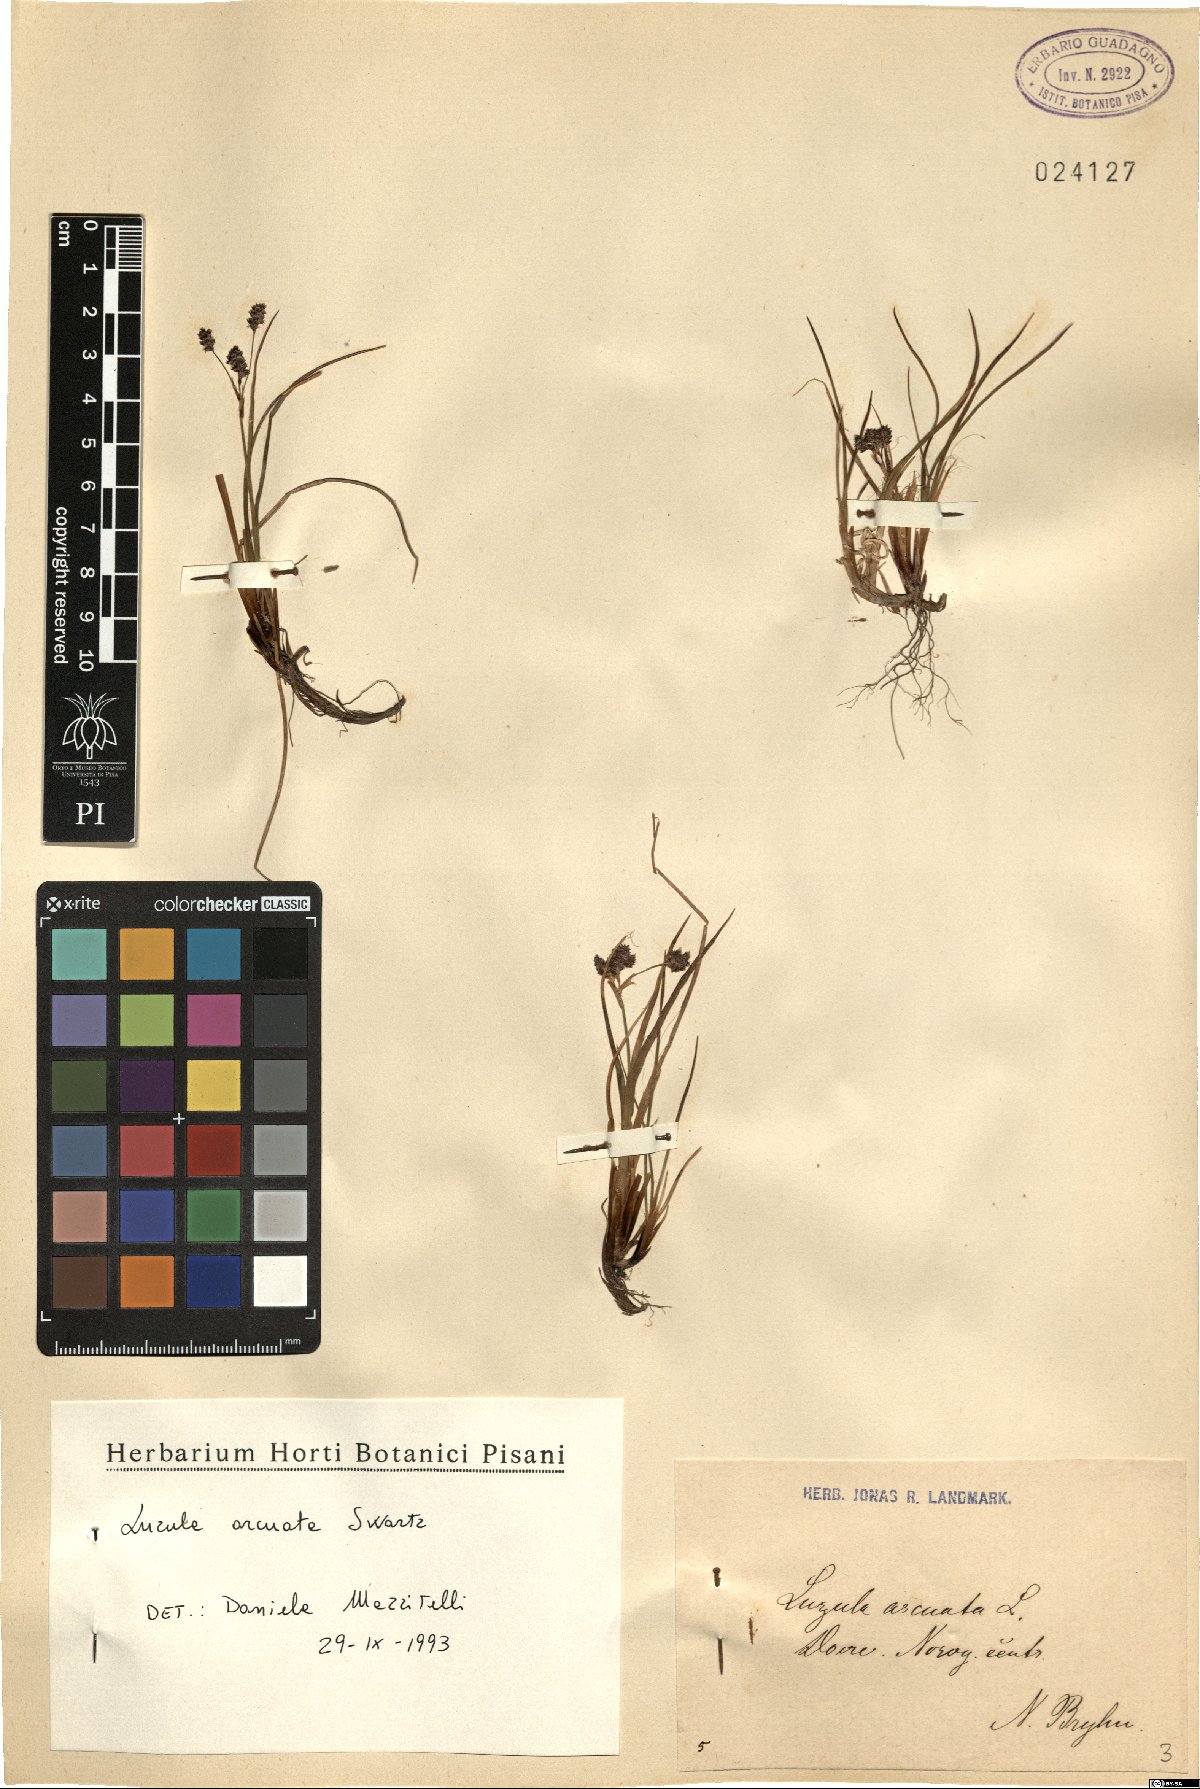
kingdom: Plantae
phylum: Tracheophyta
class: Liliopsida
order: Poales
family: Juncaceae
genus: Luzula
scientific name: Luzula arcuata
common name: Curved wood-rush
